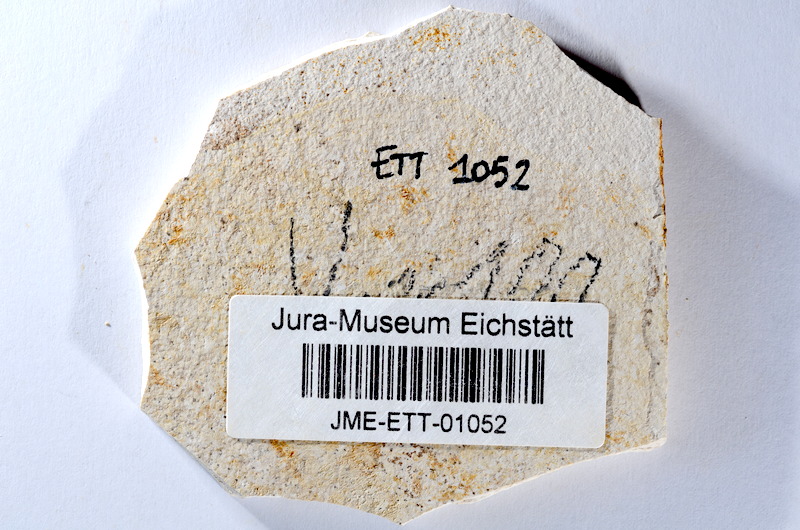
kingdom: Animalia
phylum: Chordata
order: Salmoniformes
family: Orthogonikleithridae
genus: Orthogonikleithrus
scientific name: Orthogonikleithrus hoelli
